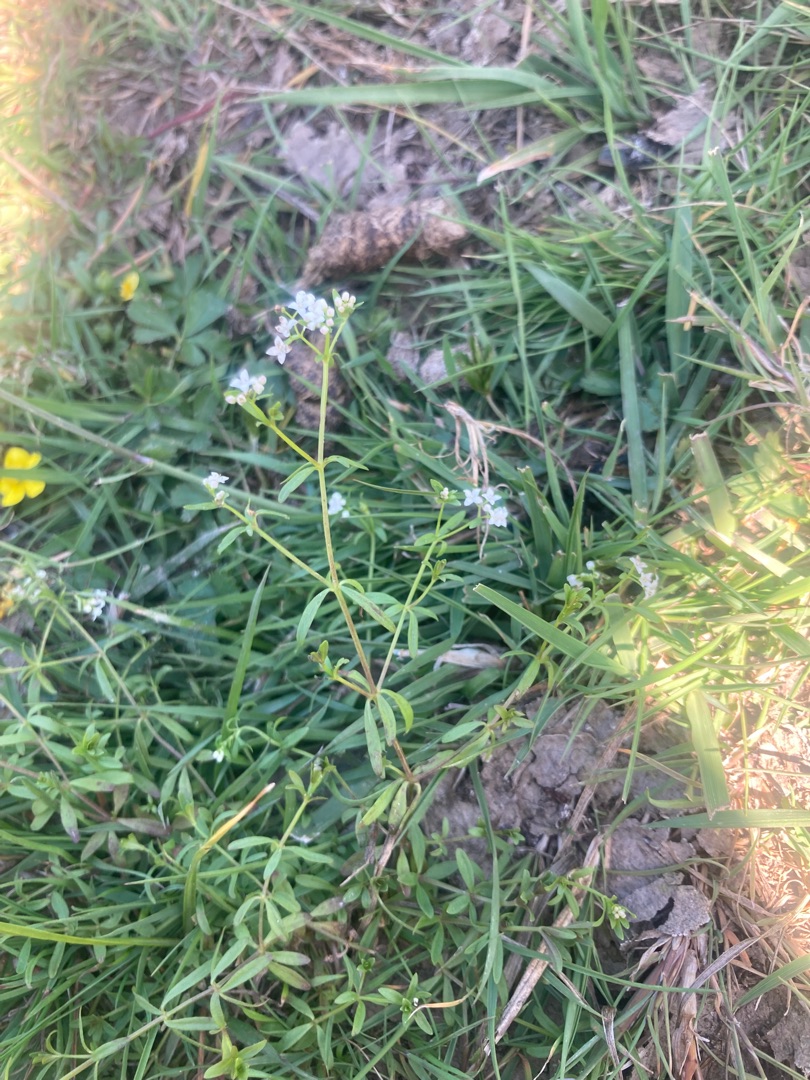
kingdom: Plantae
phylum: Tracheophyta
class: Magnoliopsida
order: Gentianales
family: Rubiaceae
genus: Galium
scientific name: Galium palustre
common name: Kær-snerre
